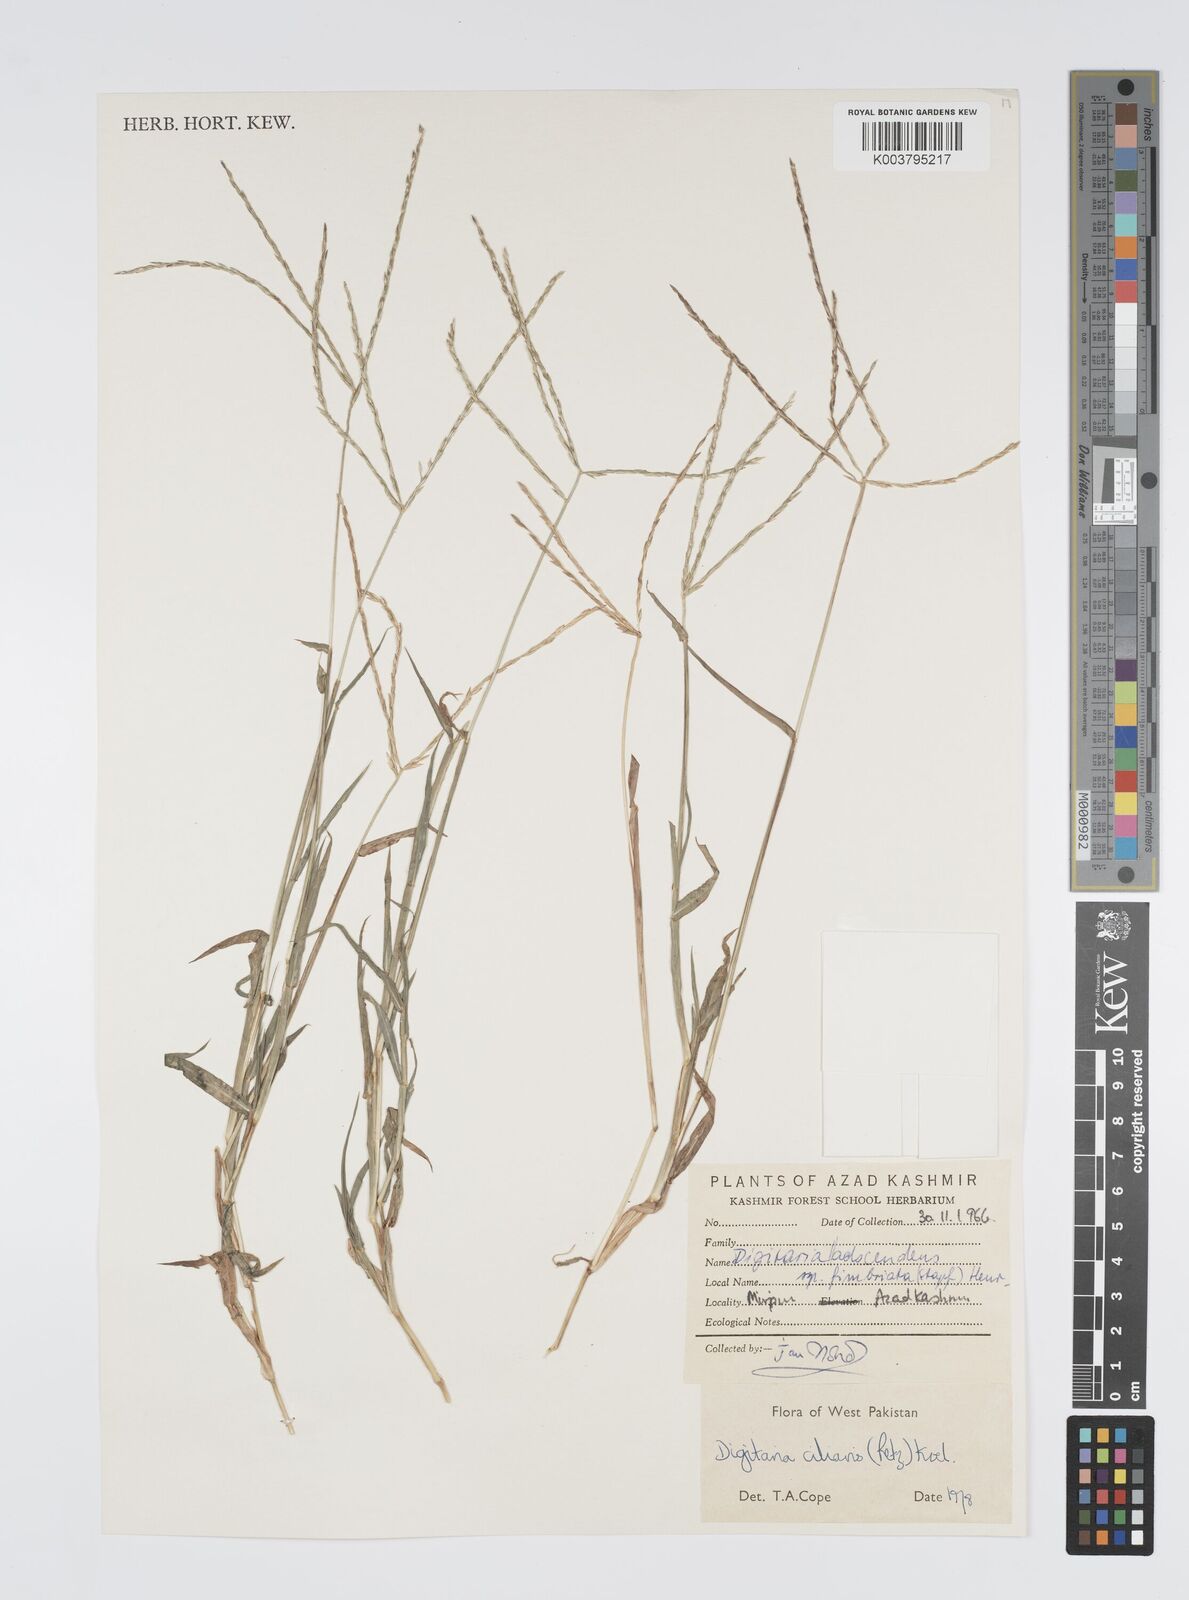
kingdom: Plantae
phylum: Tracheophyta
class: Liliopsida
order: Poales
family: Poaceae
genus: Digitaria
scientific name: Digitaria ciliaris
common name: Tropical finger-grass
